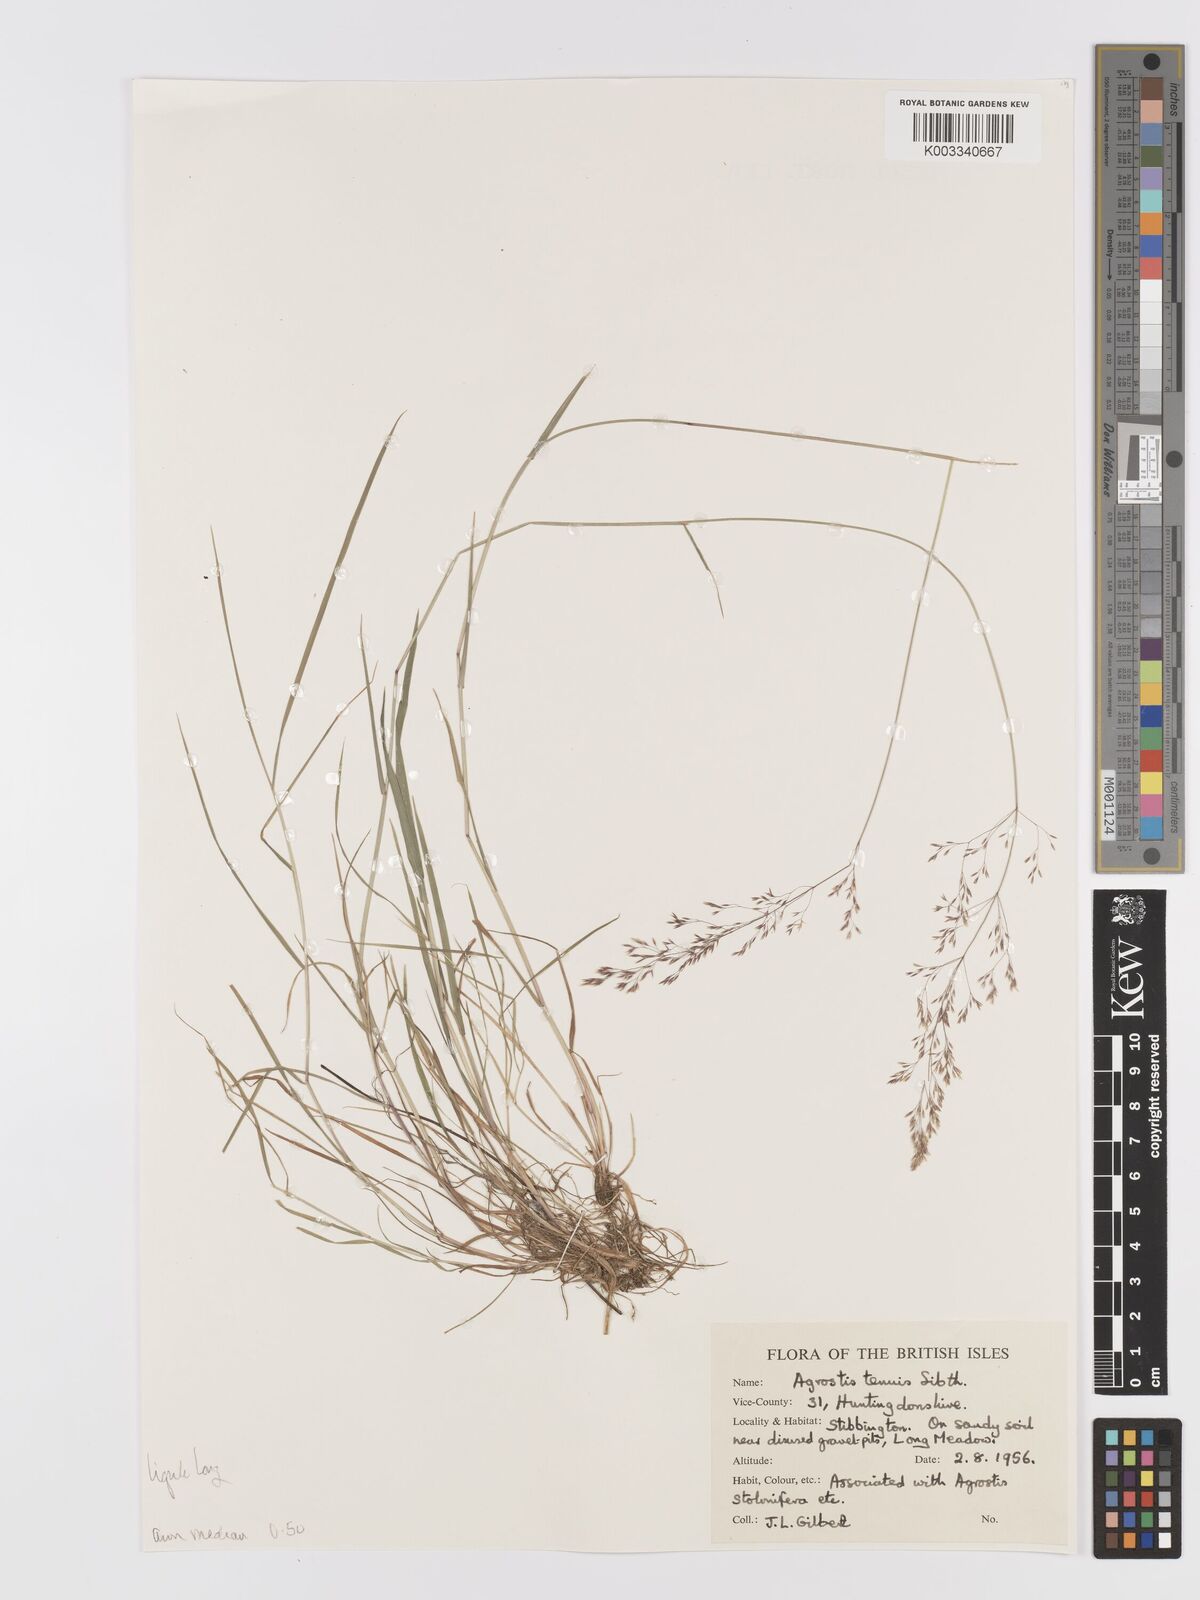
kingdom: Plantae
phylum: Tracheophyta
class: Liliopsida
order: Poales
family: Poaceae
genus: Agrostis
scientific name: Agrostis capillaris
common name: Colonial bentgrass
